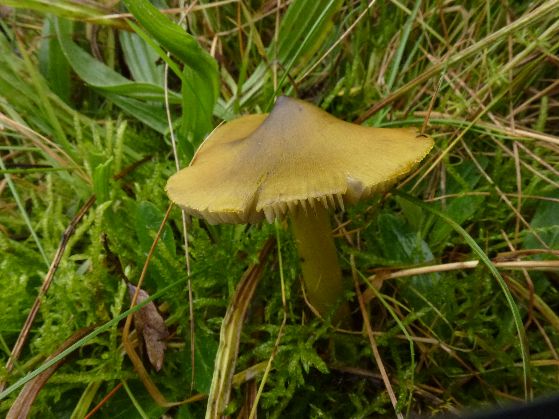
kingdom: Fungi
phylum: Basidiomycota
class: Agaricomycetes
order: Agaricales
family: Hygrophoraceae
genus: Hygrocybe
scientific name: Hygrocybe conica
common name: kegle-vokshat
